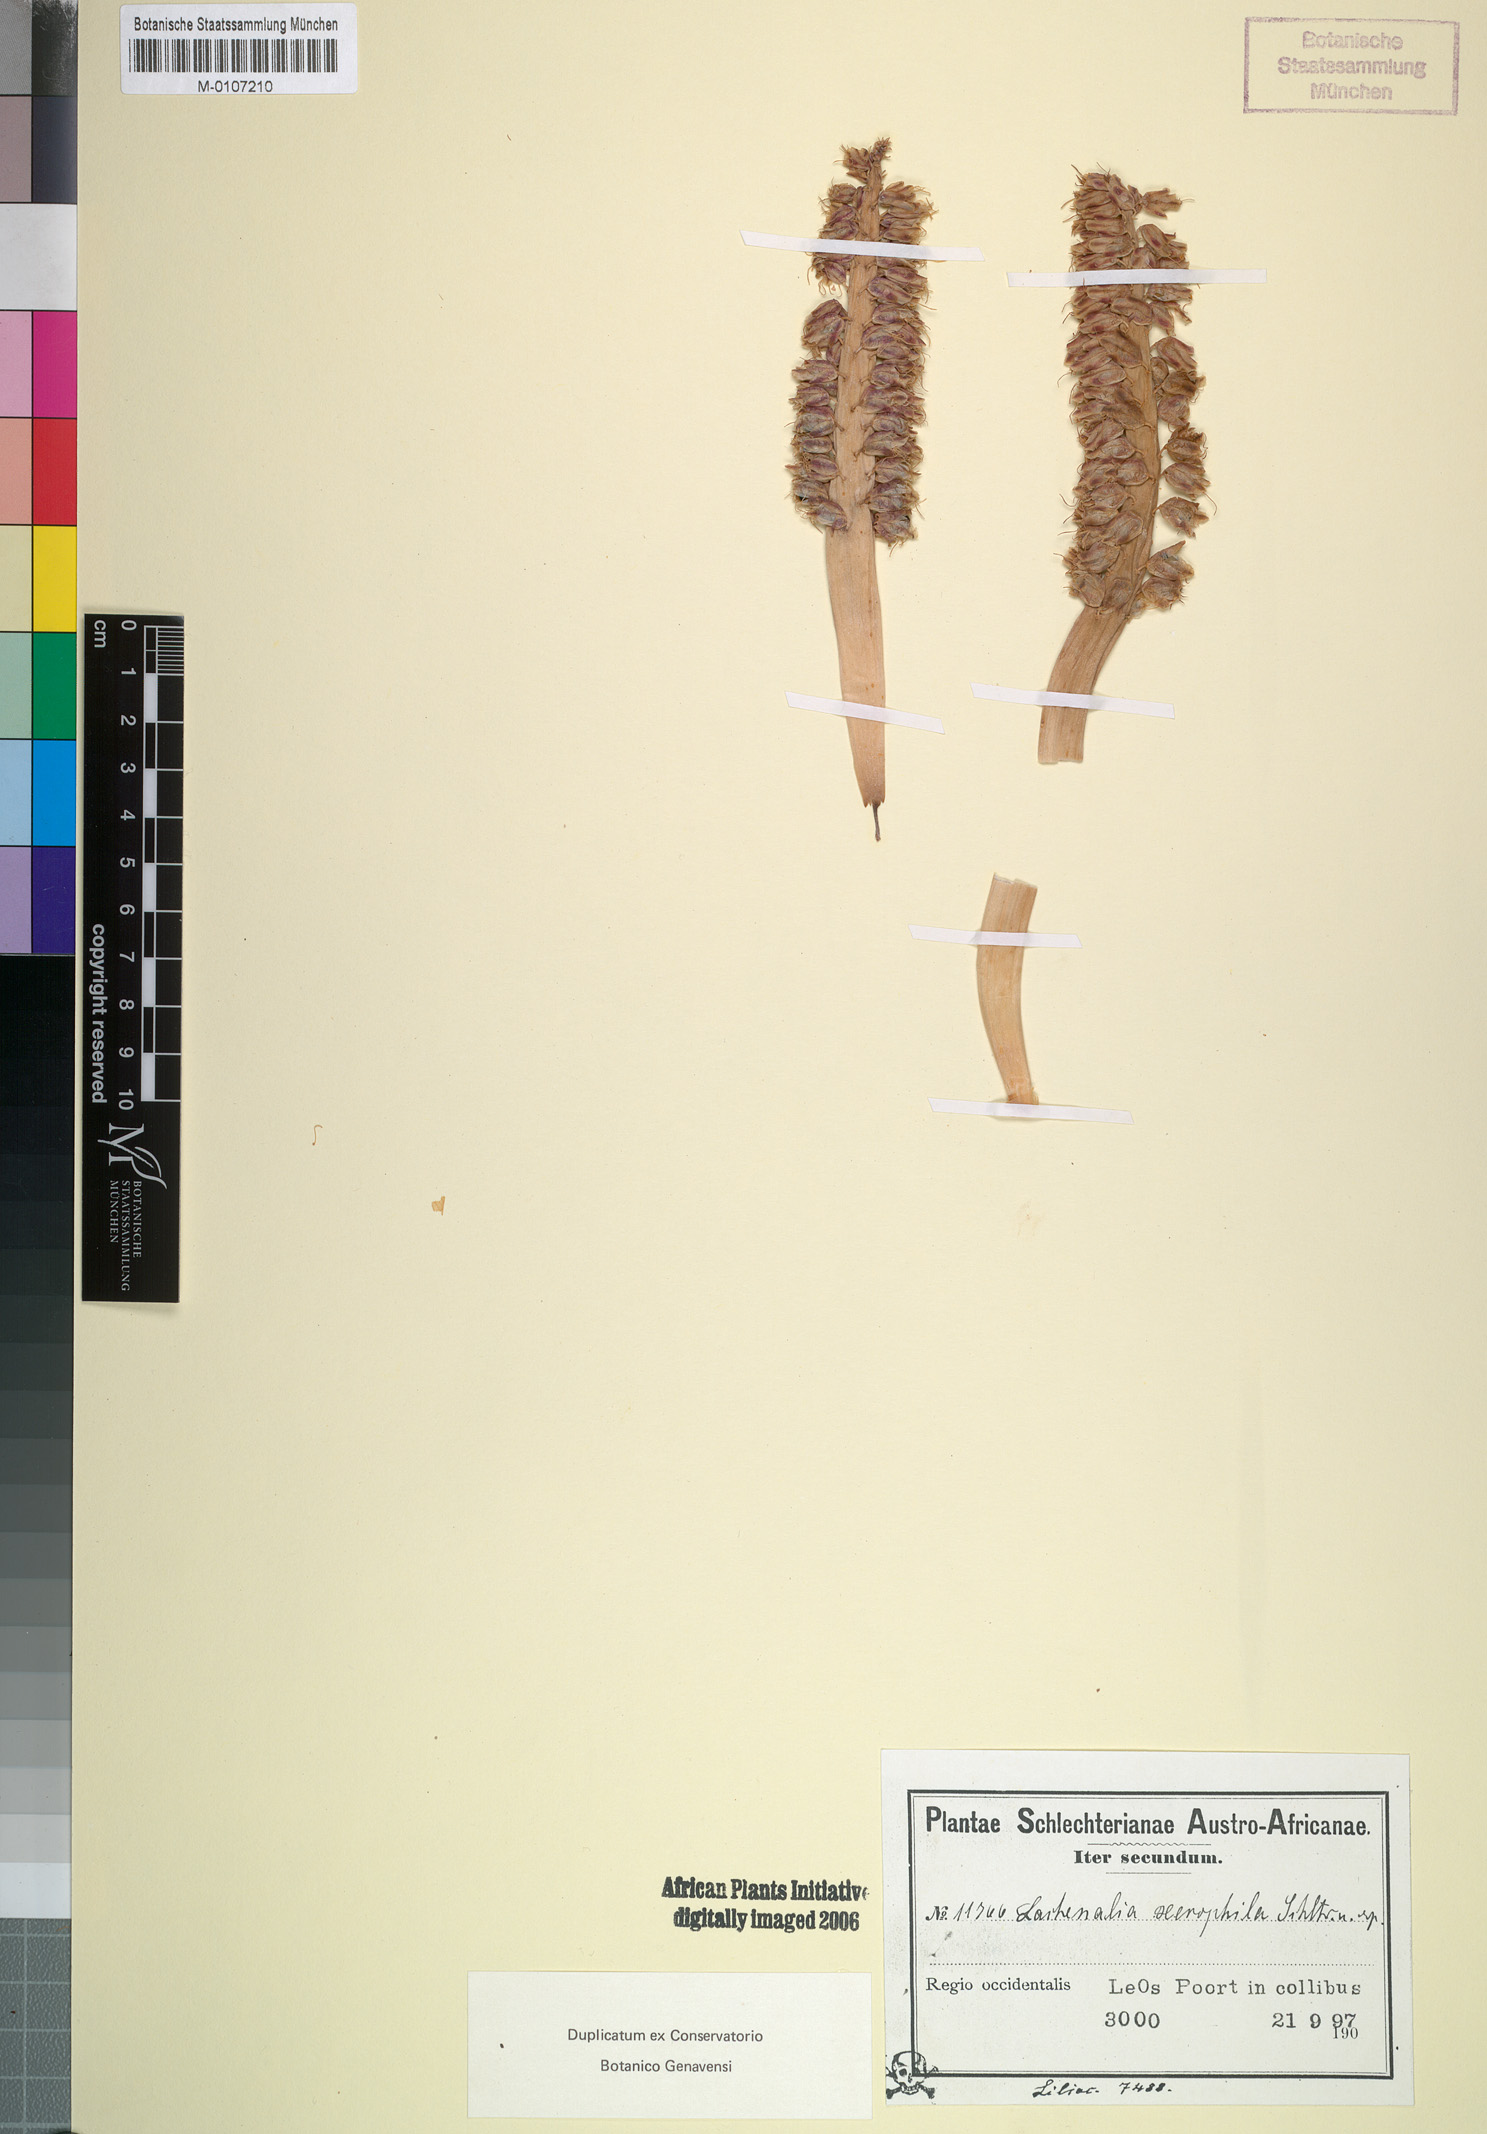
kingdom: Plantae
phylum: Tracheophyta
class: Liliopsida
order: Asparagales
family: Asparagaceae
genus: Lachenalia
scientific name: Lachenalia xerophila
